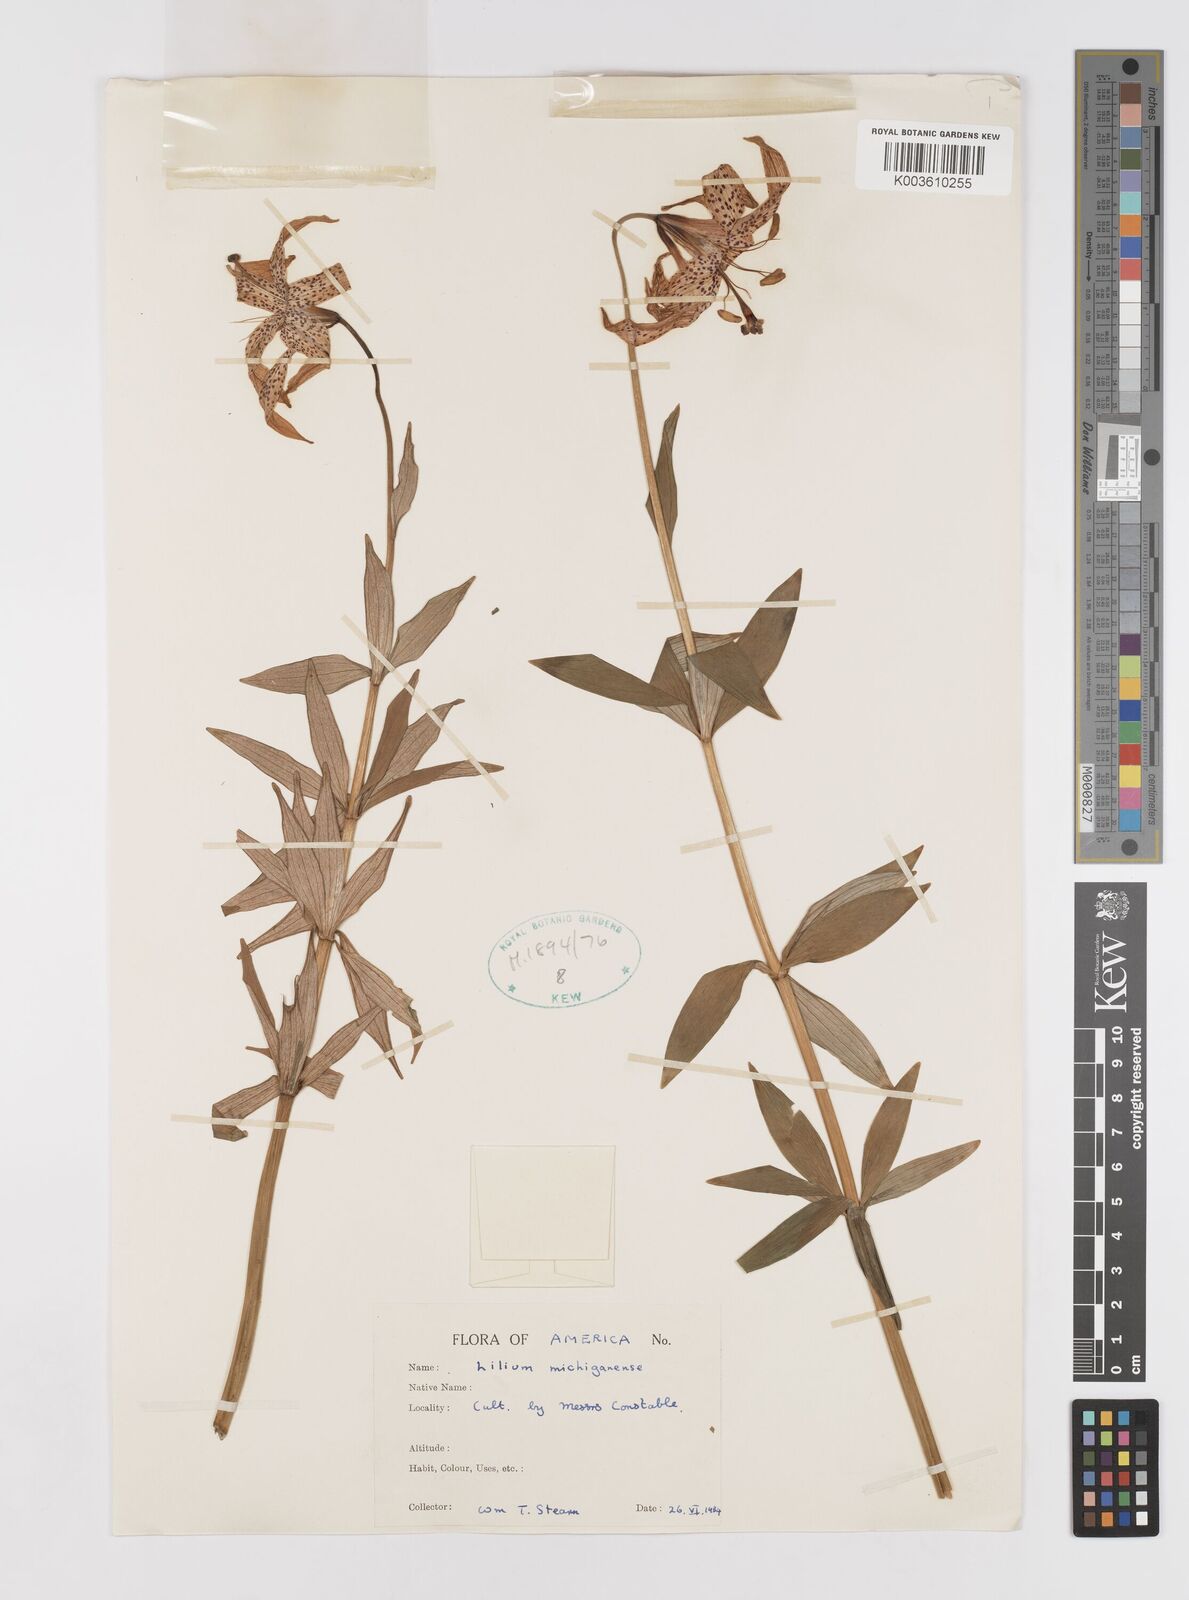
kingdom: Plantae
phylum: Tracheophyta
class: Liliopsida
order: Liliales
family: Liliaceae
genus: Lilium
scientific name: Lilium michiganense
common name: Michigan lily
